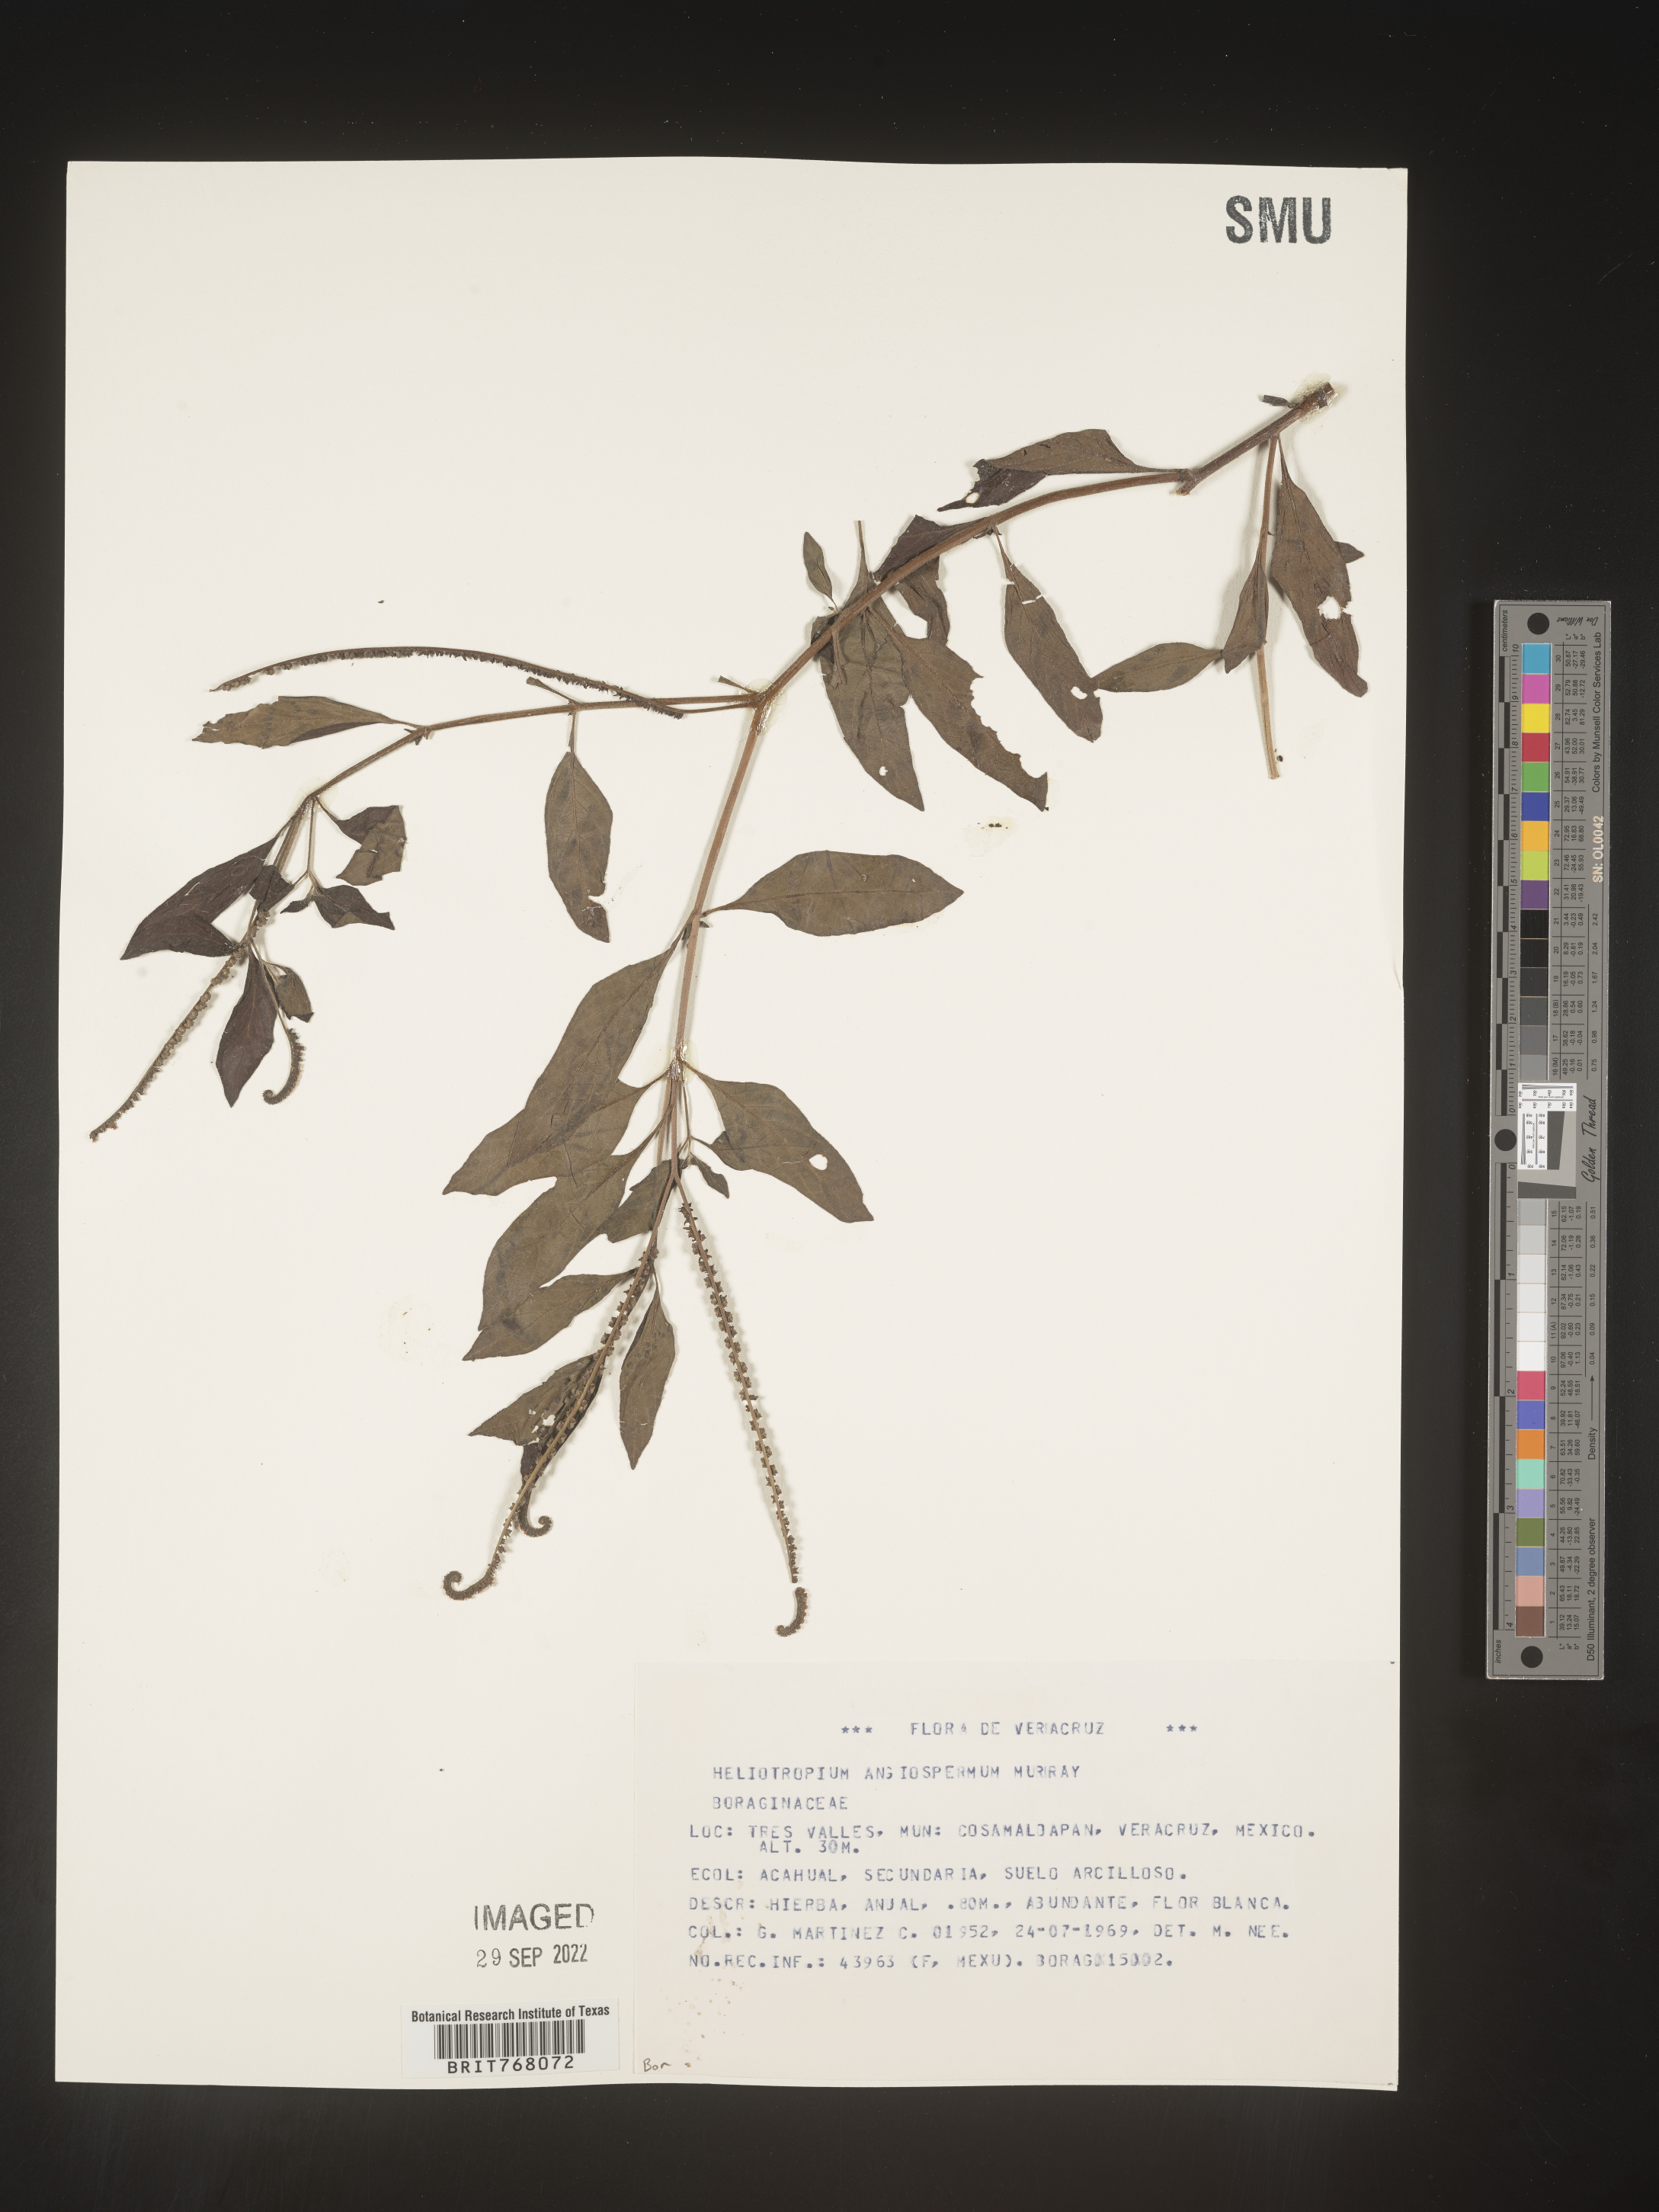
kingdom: Plantae
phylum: Tracheophyta
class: Magnoliopsida
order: Boraginales
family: Heliotropiaceae
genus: Heliotropium
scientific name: Heliotropium
